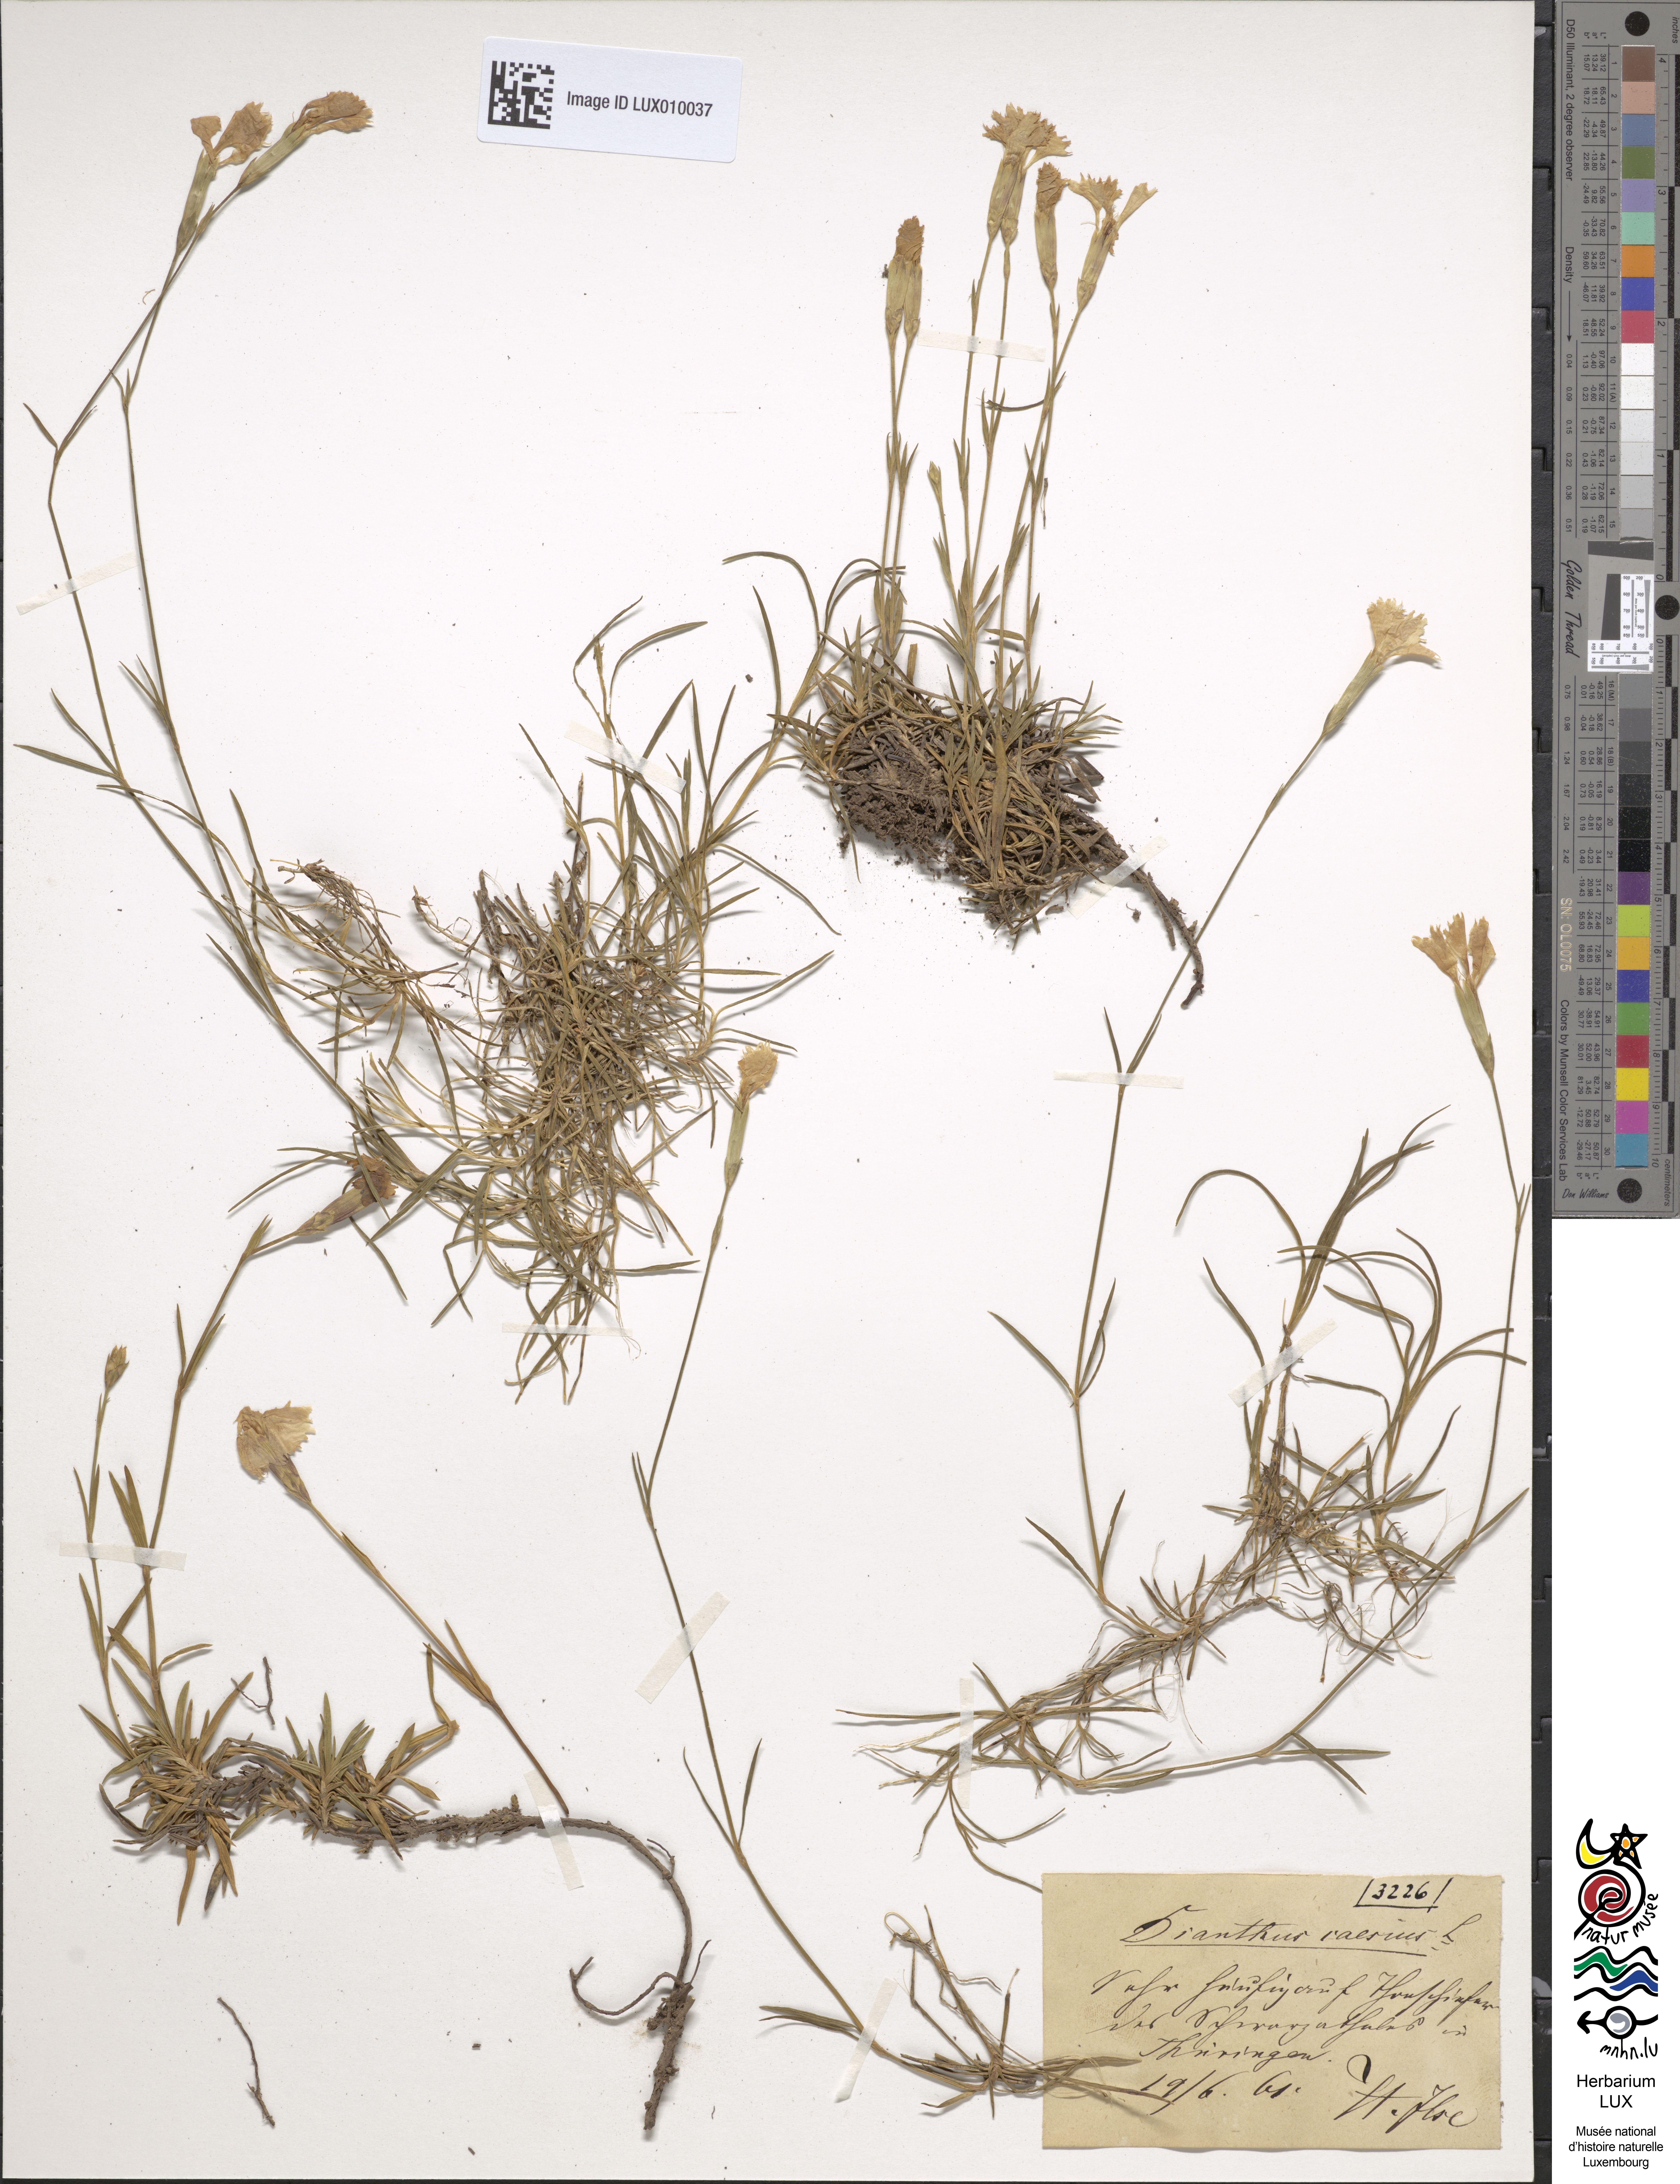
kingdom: Plantae
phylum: Tracheophyta
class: Magnoliopsida
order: Caryophyllales
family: Caryophyllaceae
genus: Dianthus
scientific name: Dianthus gratianopolitanus
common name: Cheddar pink
